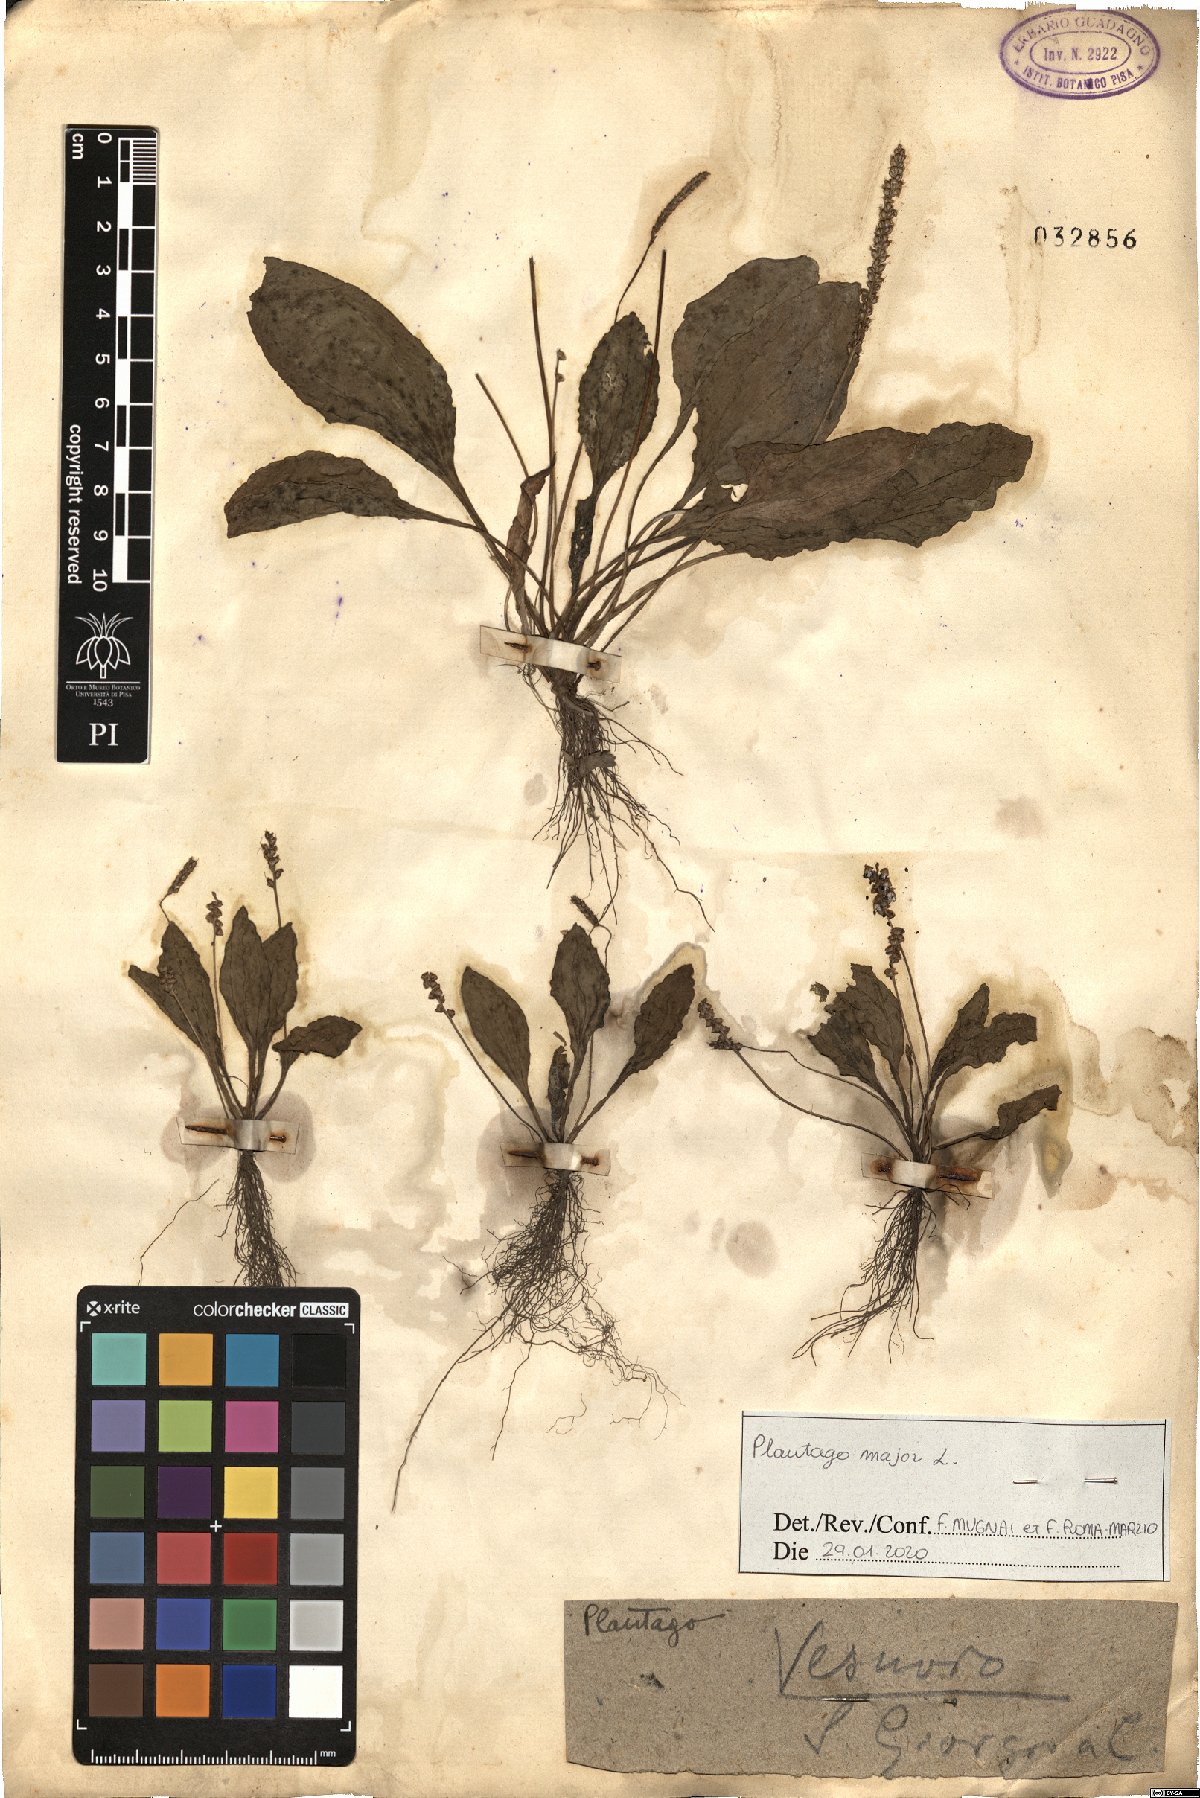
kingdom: Plantae
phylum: Tracheophyta
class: Magnoliopsida
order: Lamiales
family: Plantaginaceae
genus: Plantago
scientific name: Plantago major
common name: Common plantain
